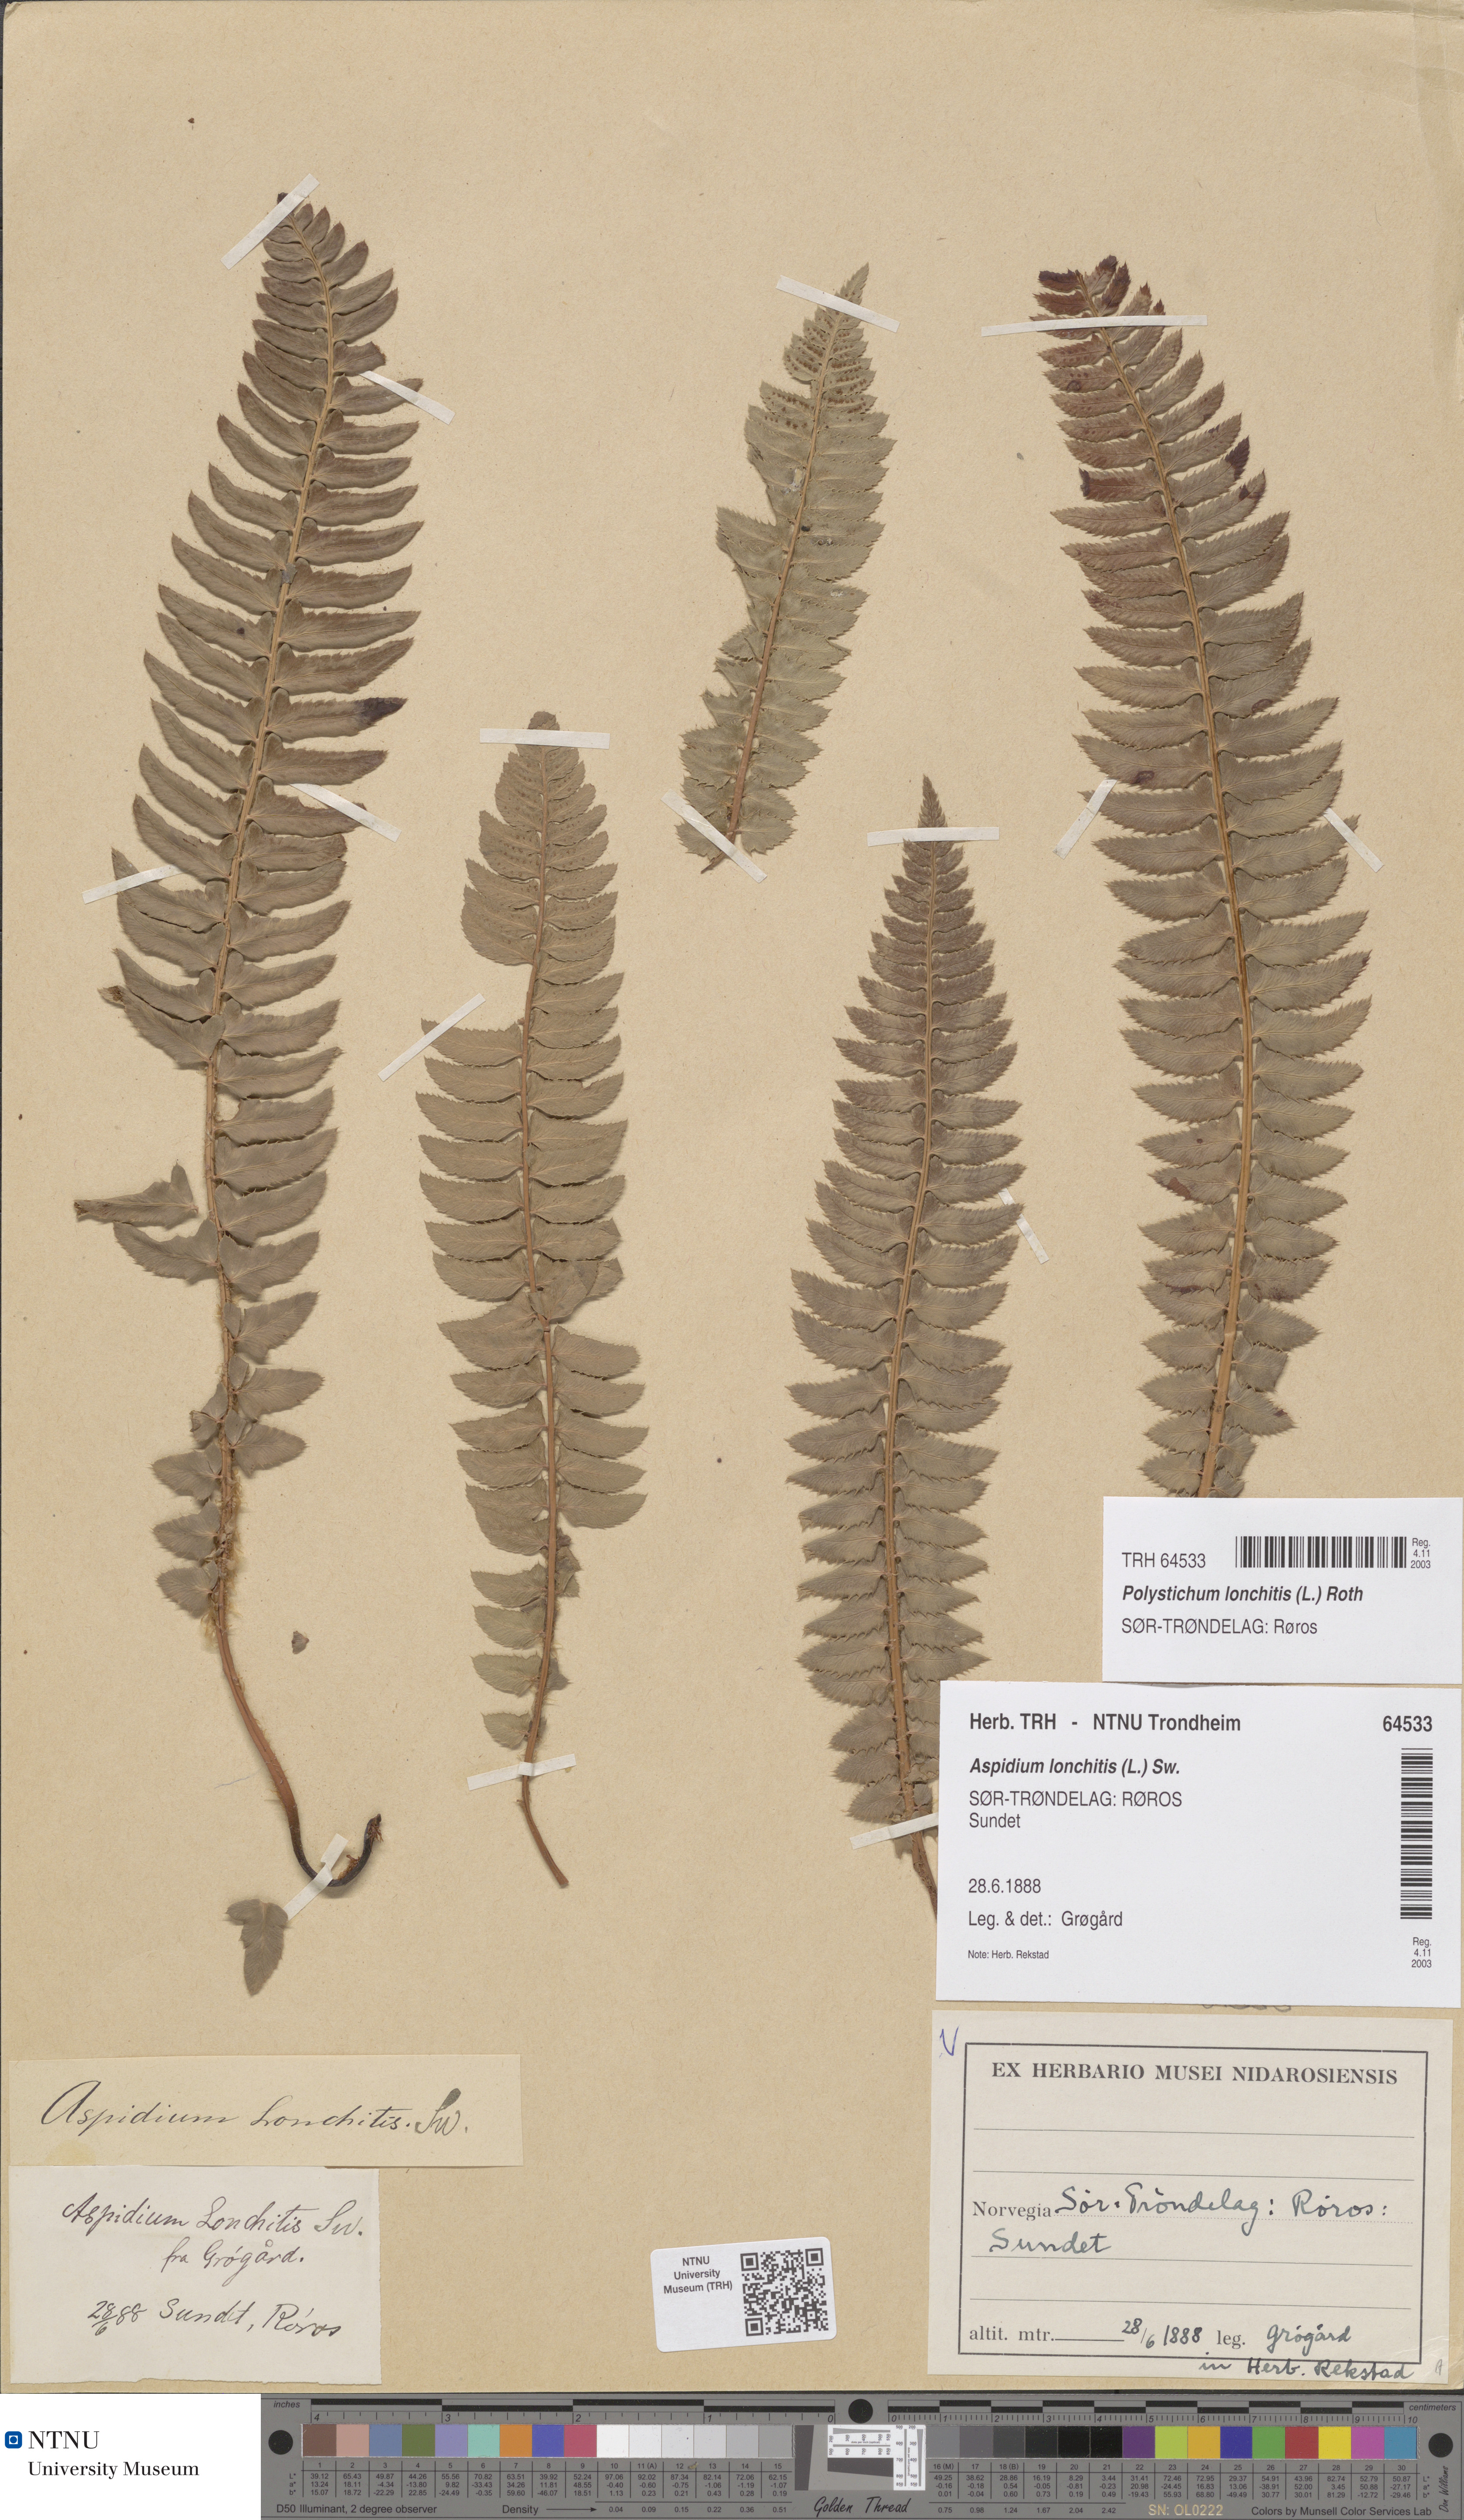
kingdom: Plantae
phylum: Tracheophyta
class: Polypodiopsida
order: Polypodiales
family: Dryopteridaceae
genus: Polystichum
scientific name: Polystichum lonchitis
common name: Holly fern
